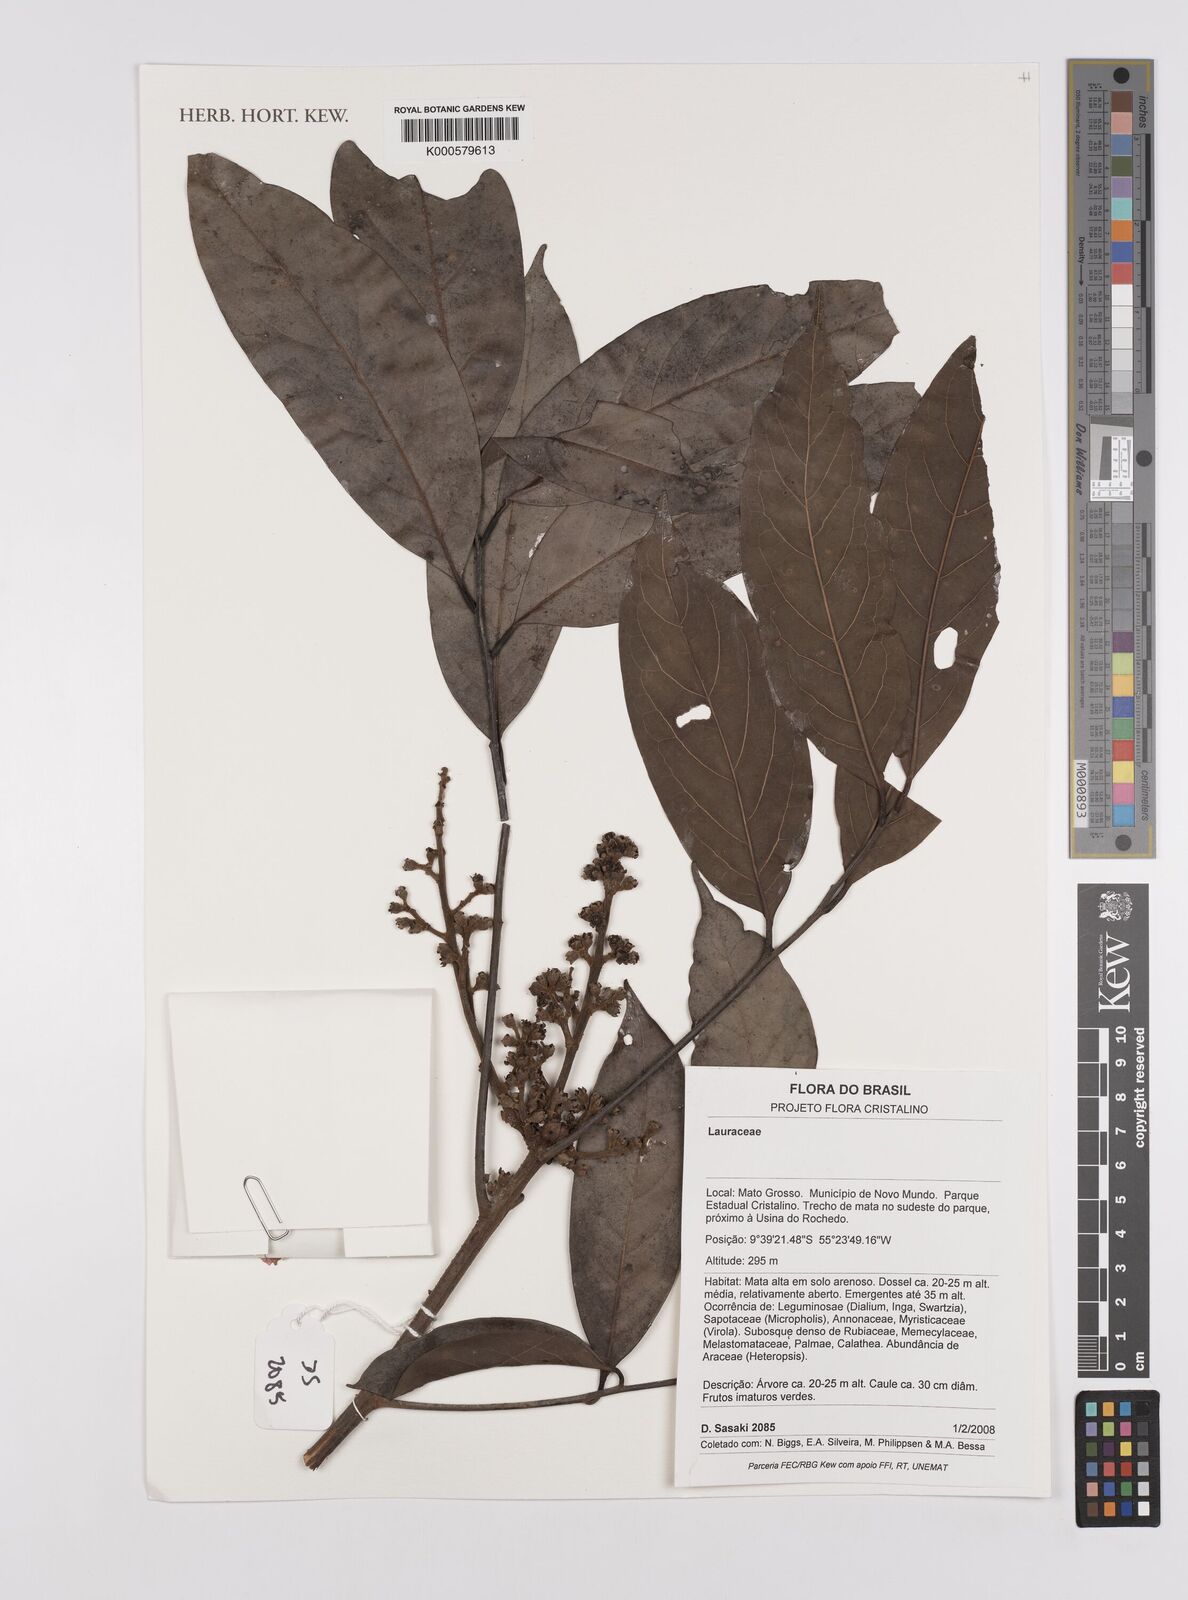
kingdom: Plantae
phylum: Tracheophyta
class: Magnoliopsida
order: Laurales
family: Lauraceae
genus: Ocotea
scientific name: Ocotea
